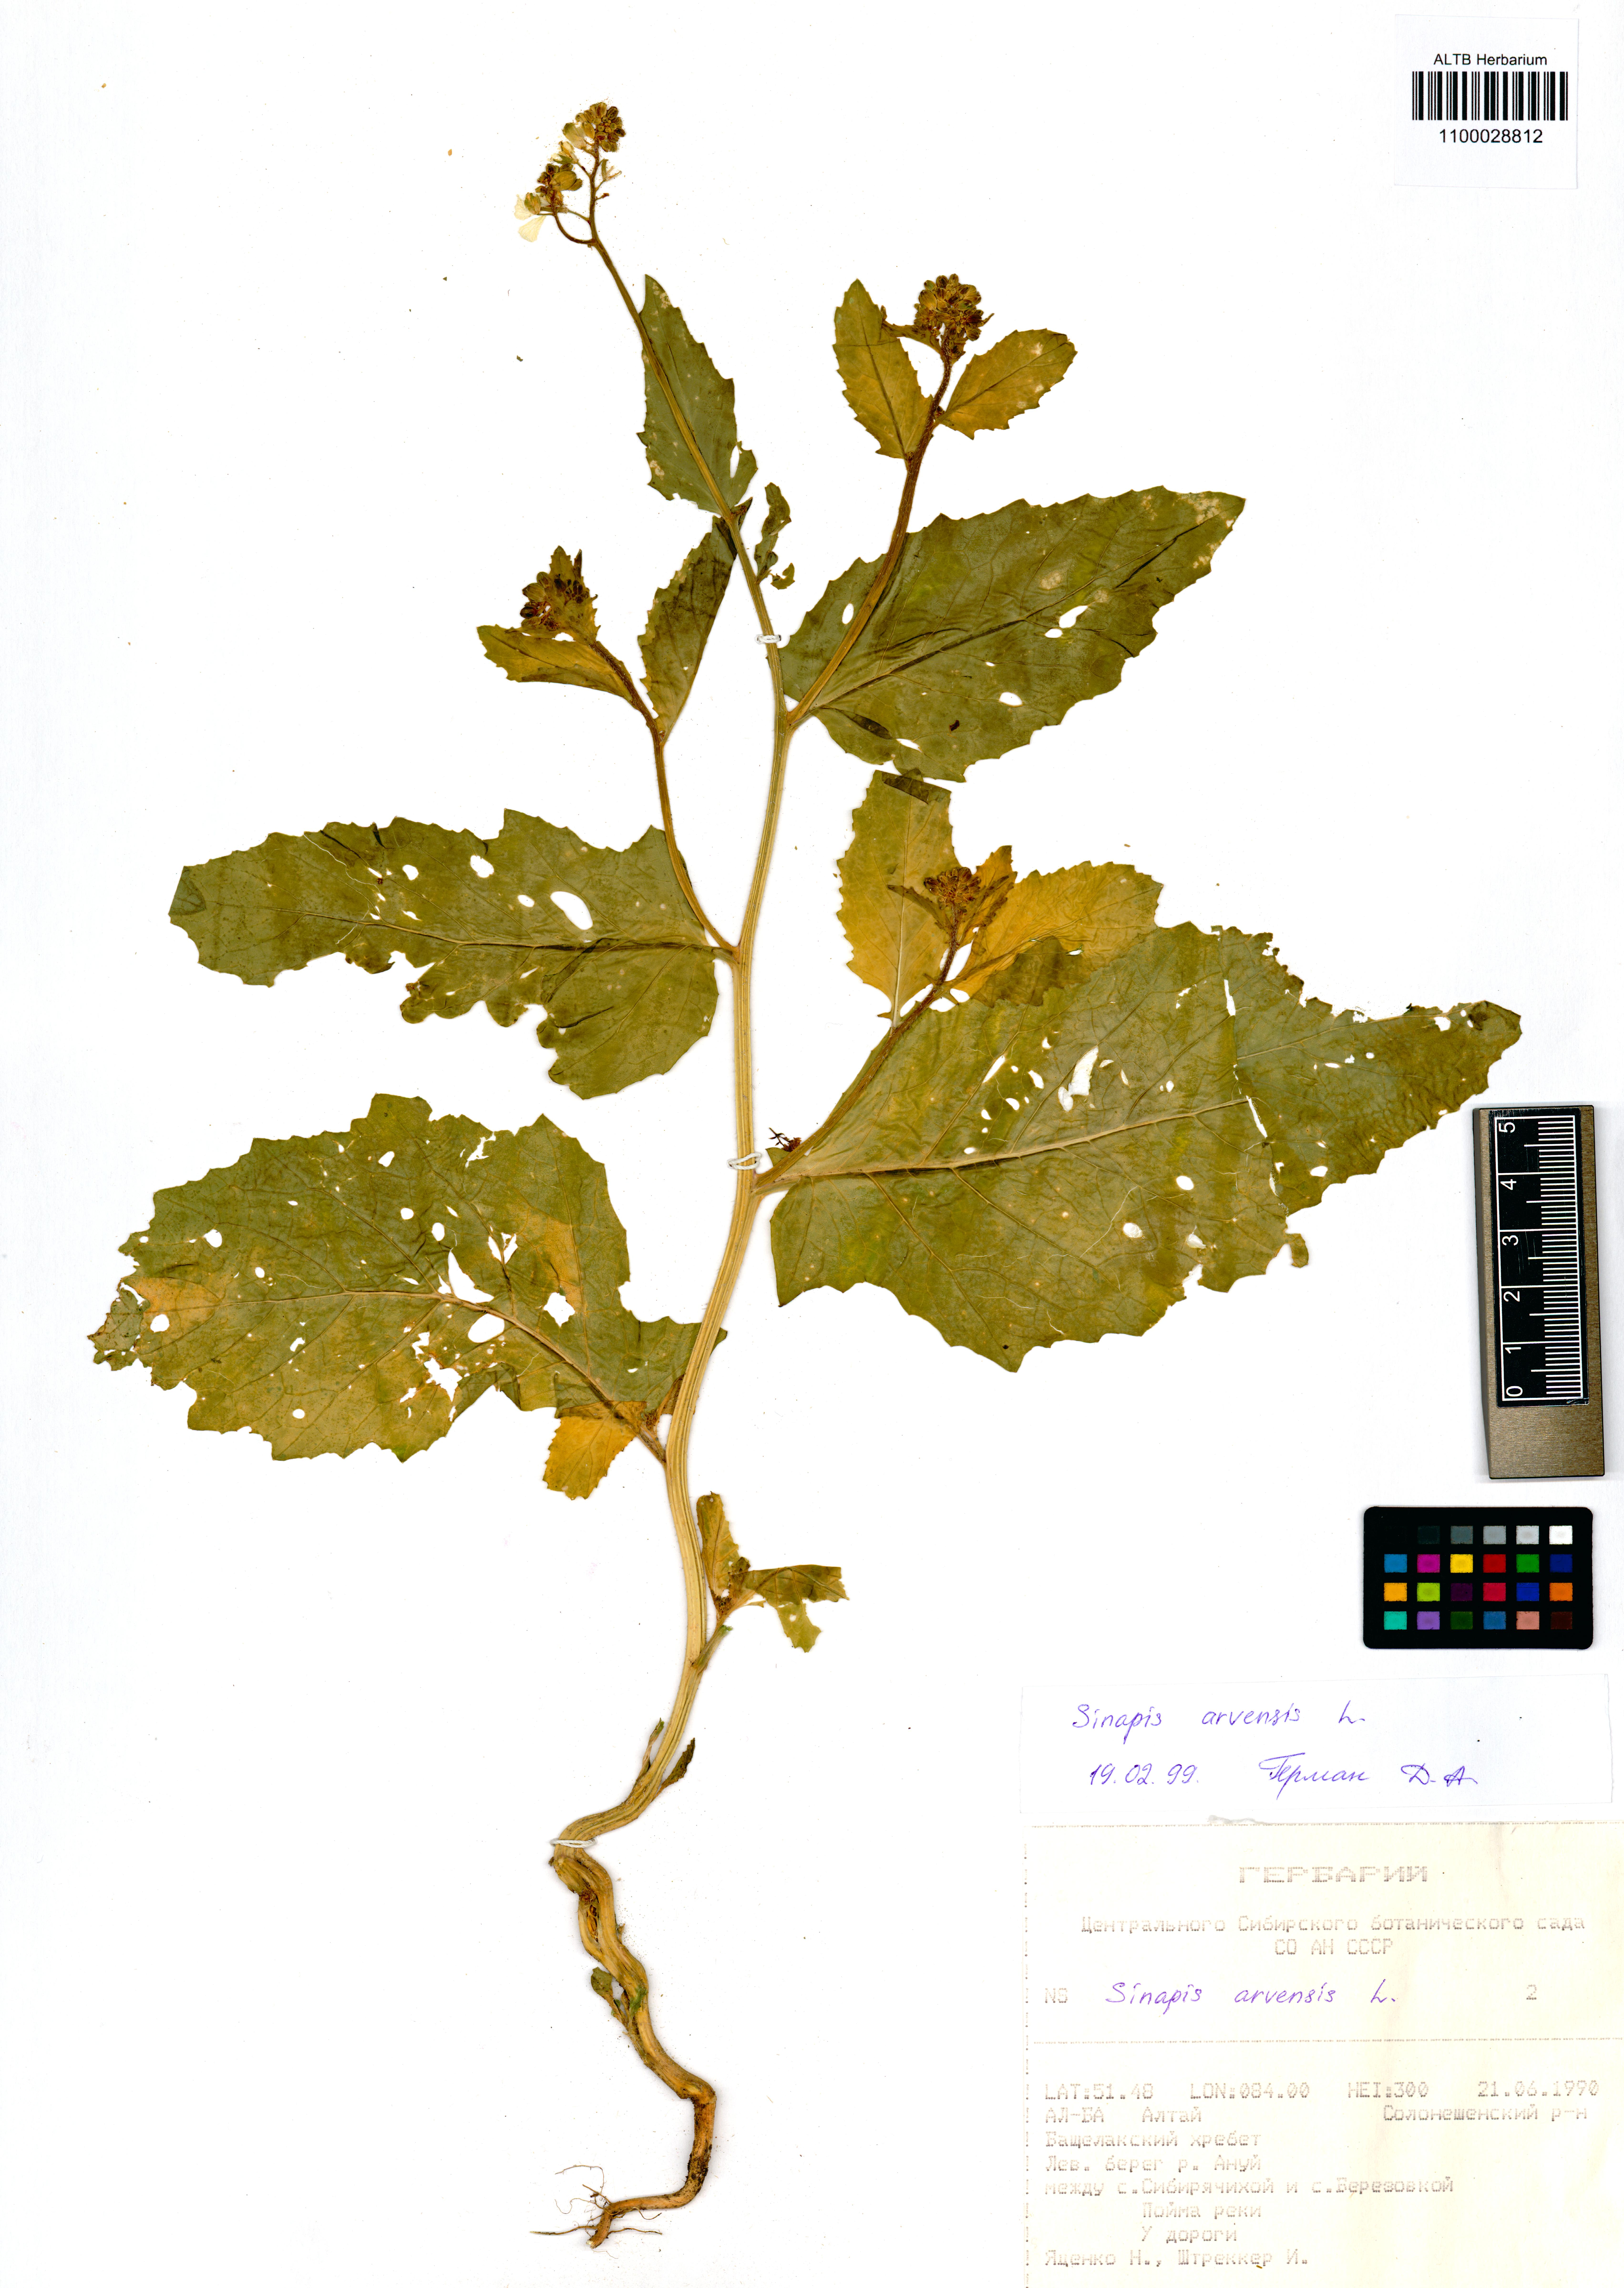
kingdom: Plantae
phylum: Tracheophyta
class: Magnoliopsida
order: Brassicales
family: Brassicaceae
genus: Sinapis
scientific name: Sinapis arvensis
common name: Charlock
